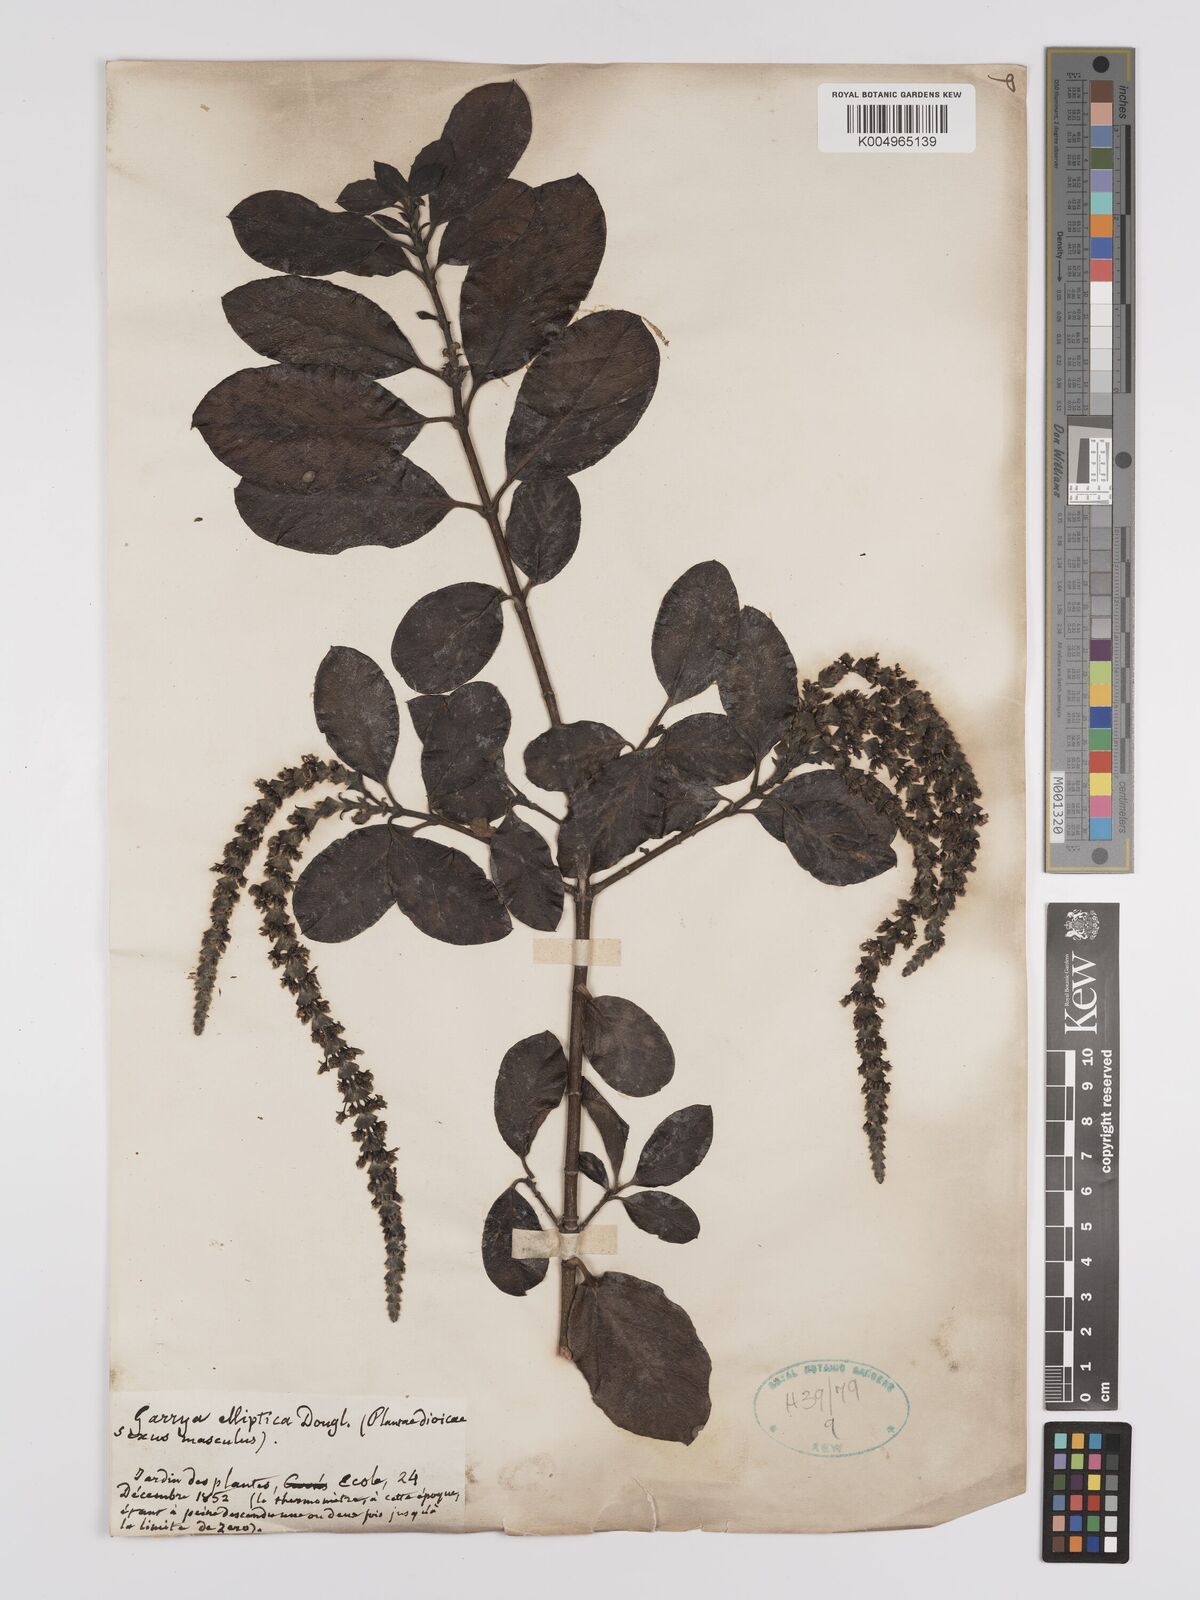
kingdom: Plantae
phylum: Tracheophyta
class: Magnoliopsida
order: Garryales
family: Garryaceae
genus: Garrya
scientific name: Garrya elliptica
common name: Silk-tassel
